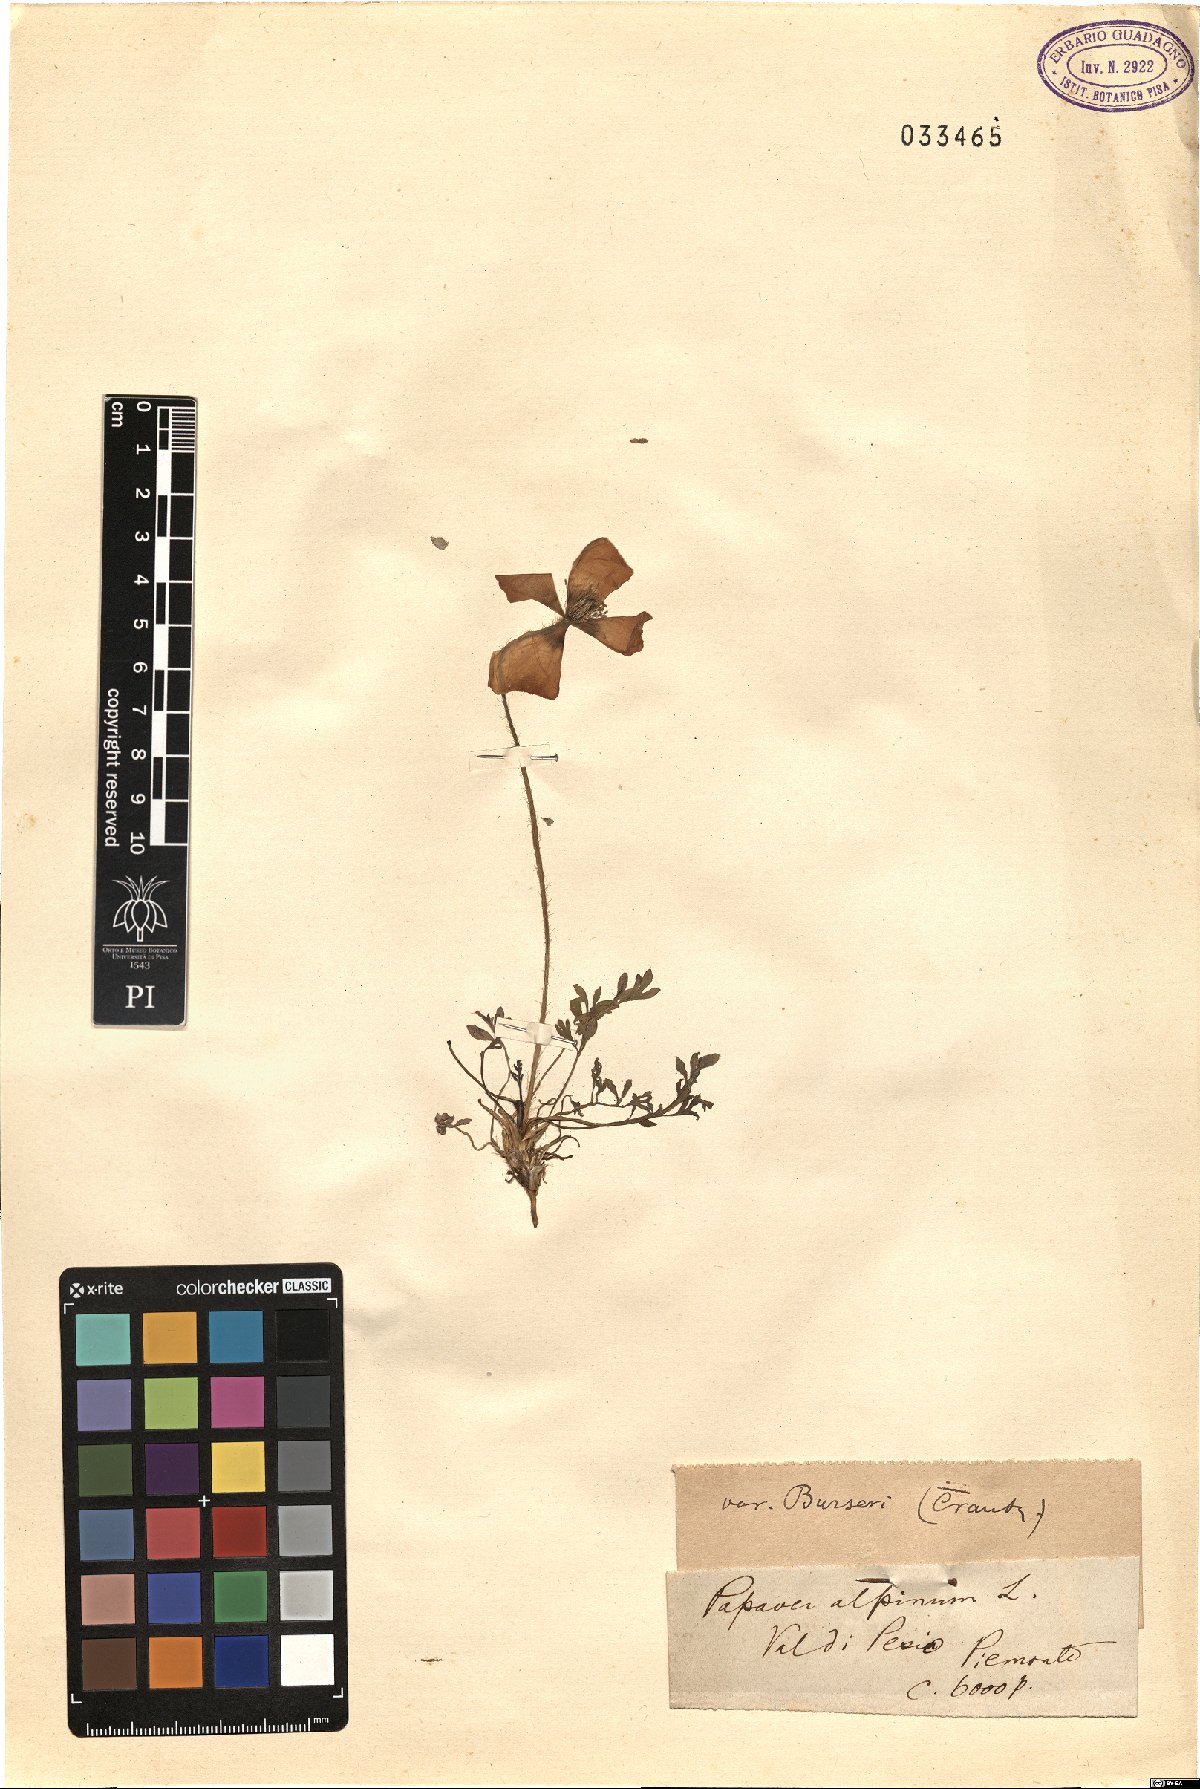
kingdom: Plantae
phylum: Tracheophyta
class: Magnoliopsida
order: Ranunculales
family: Papaveraceae
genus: Papaver
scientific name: Papaver alpinum
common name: Austrian poppy
